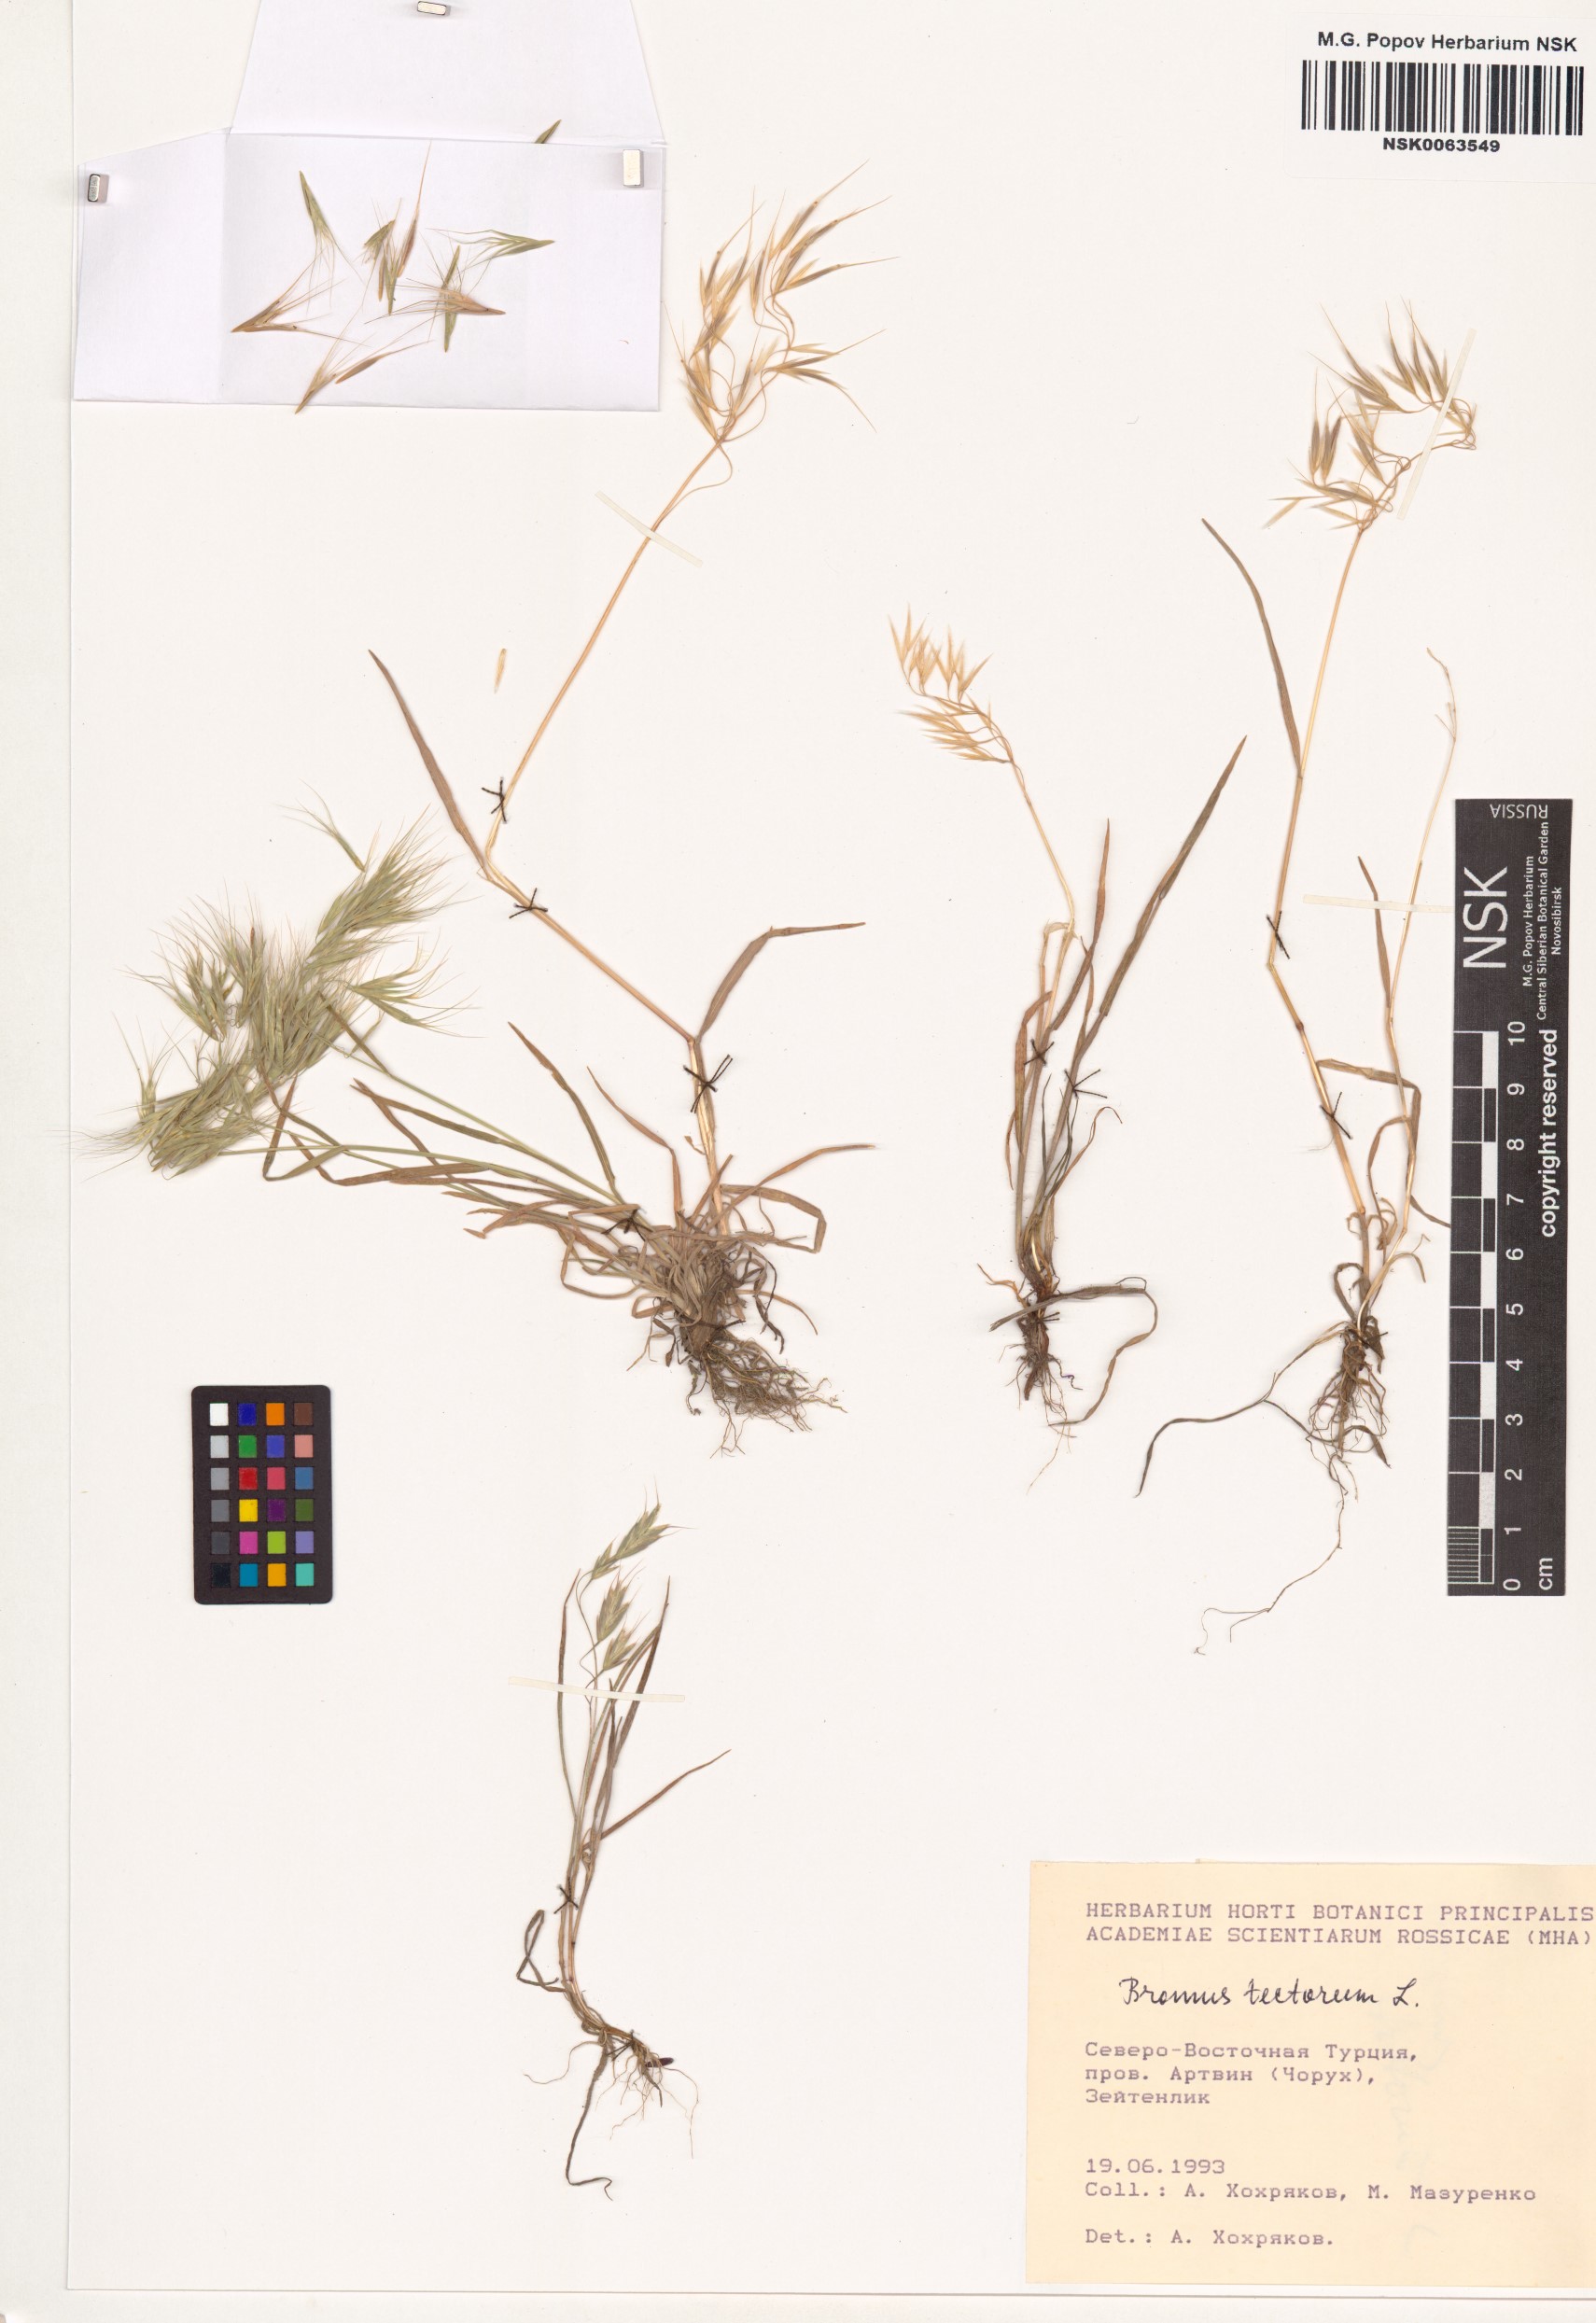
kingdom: Plantae
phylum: Tracheophyta
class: Liliopsida
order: Poales
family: Poaceae
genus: Bromus
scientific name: Bromus tectorum
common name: Cheatgrass
